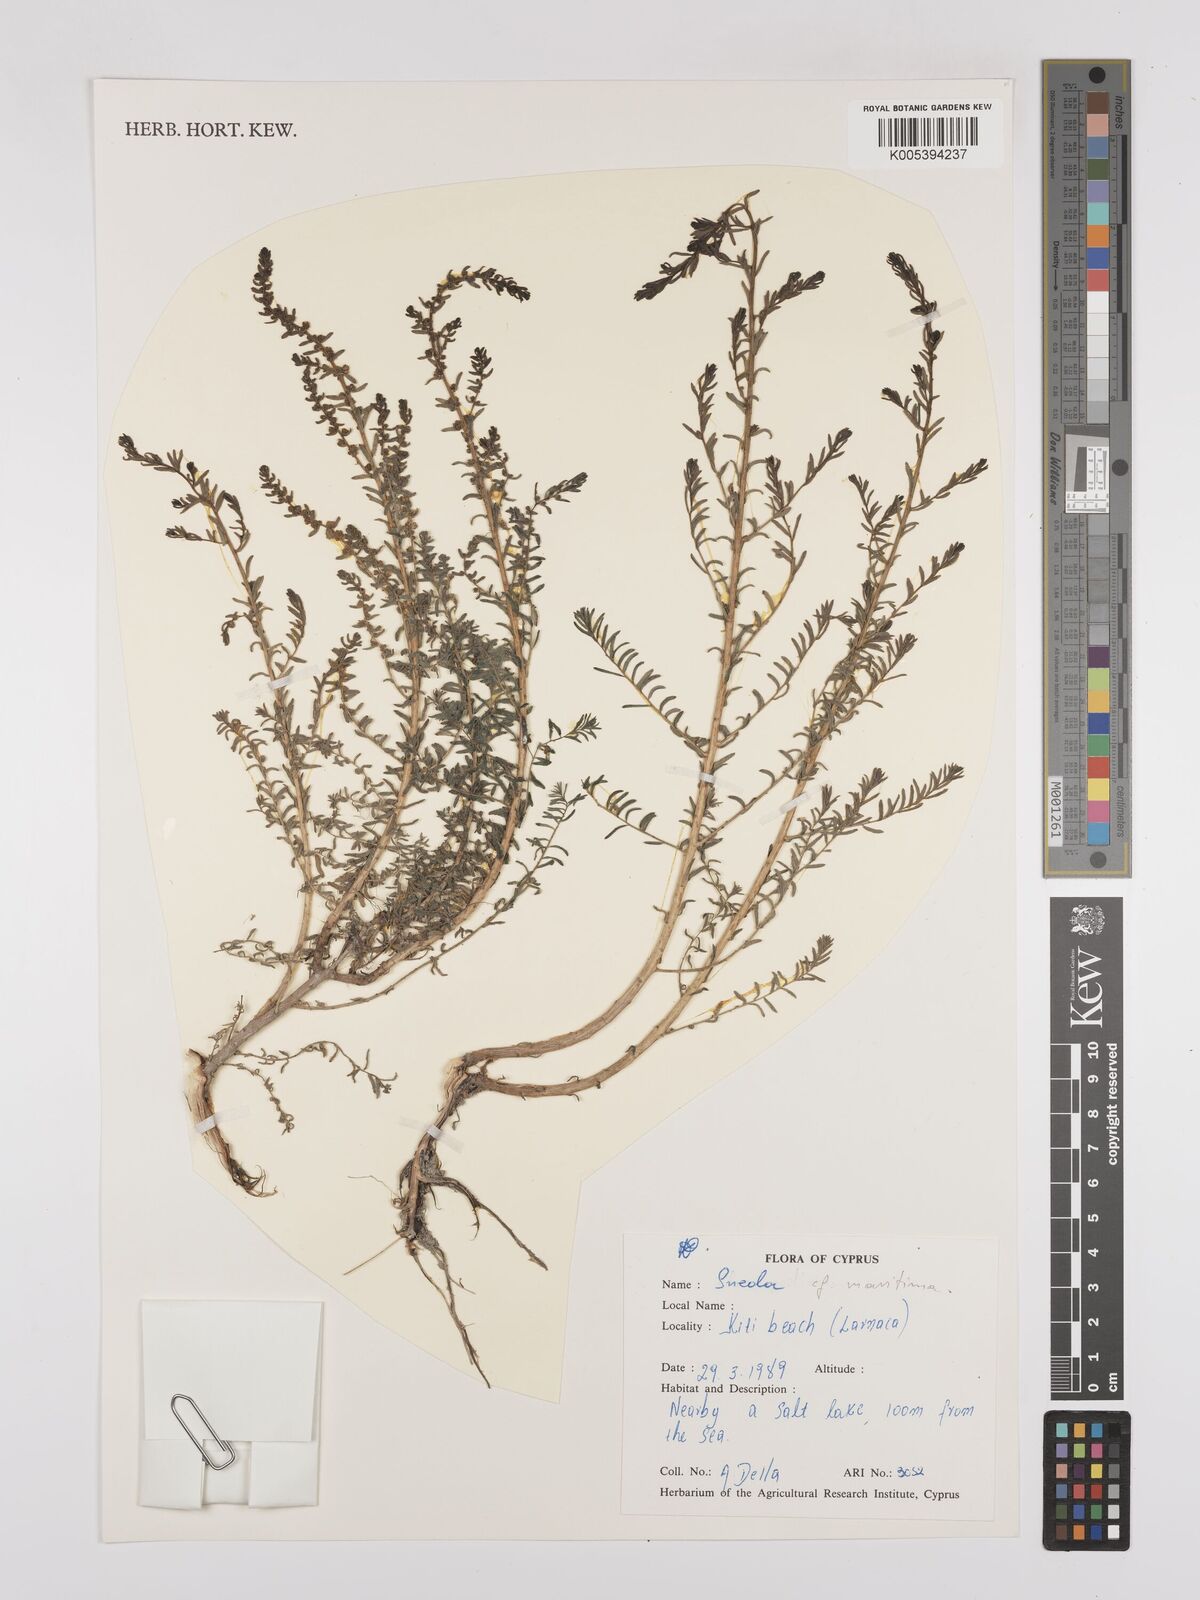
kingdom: Plantae
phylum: Tracheophyta
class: Magnoliopsida
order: Caryophyllales
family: Amaranthaceae
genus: Suaeda
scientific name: Suaeda
